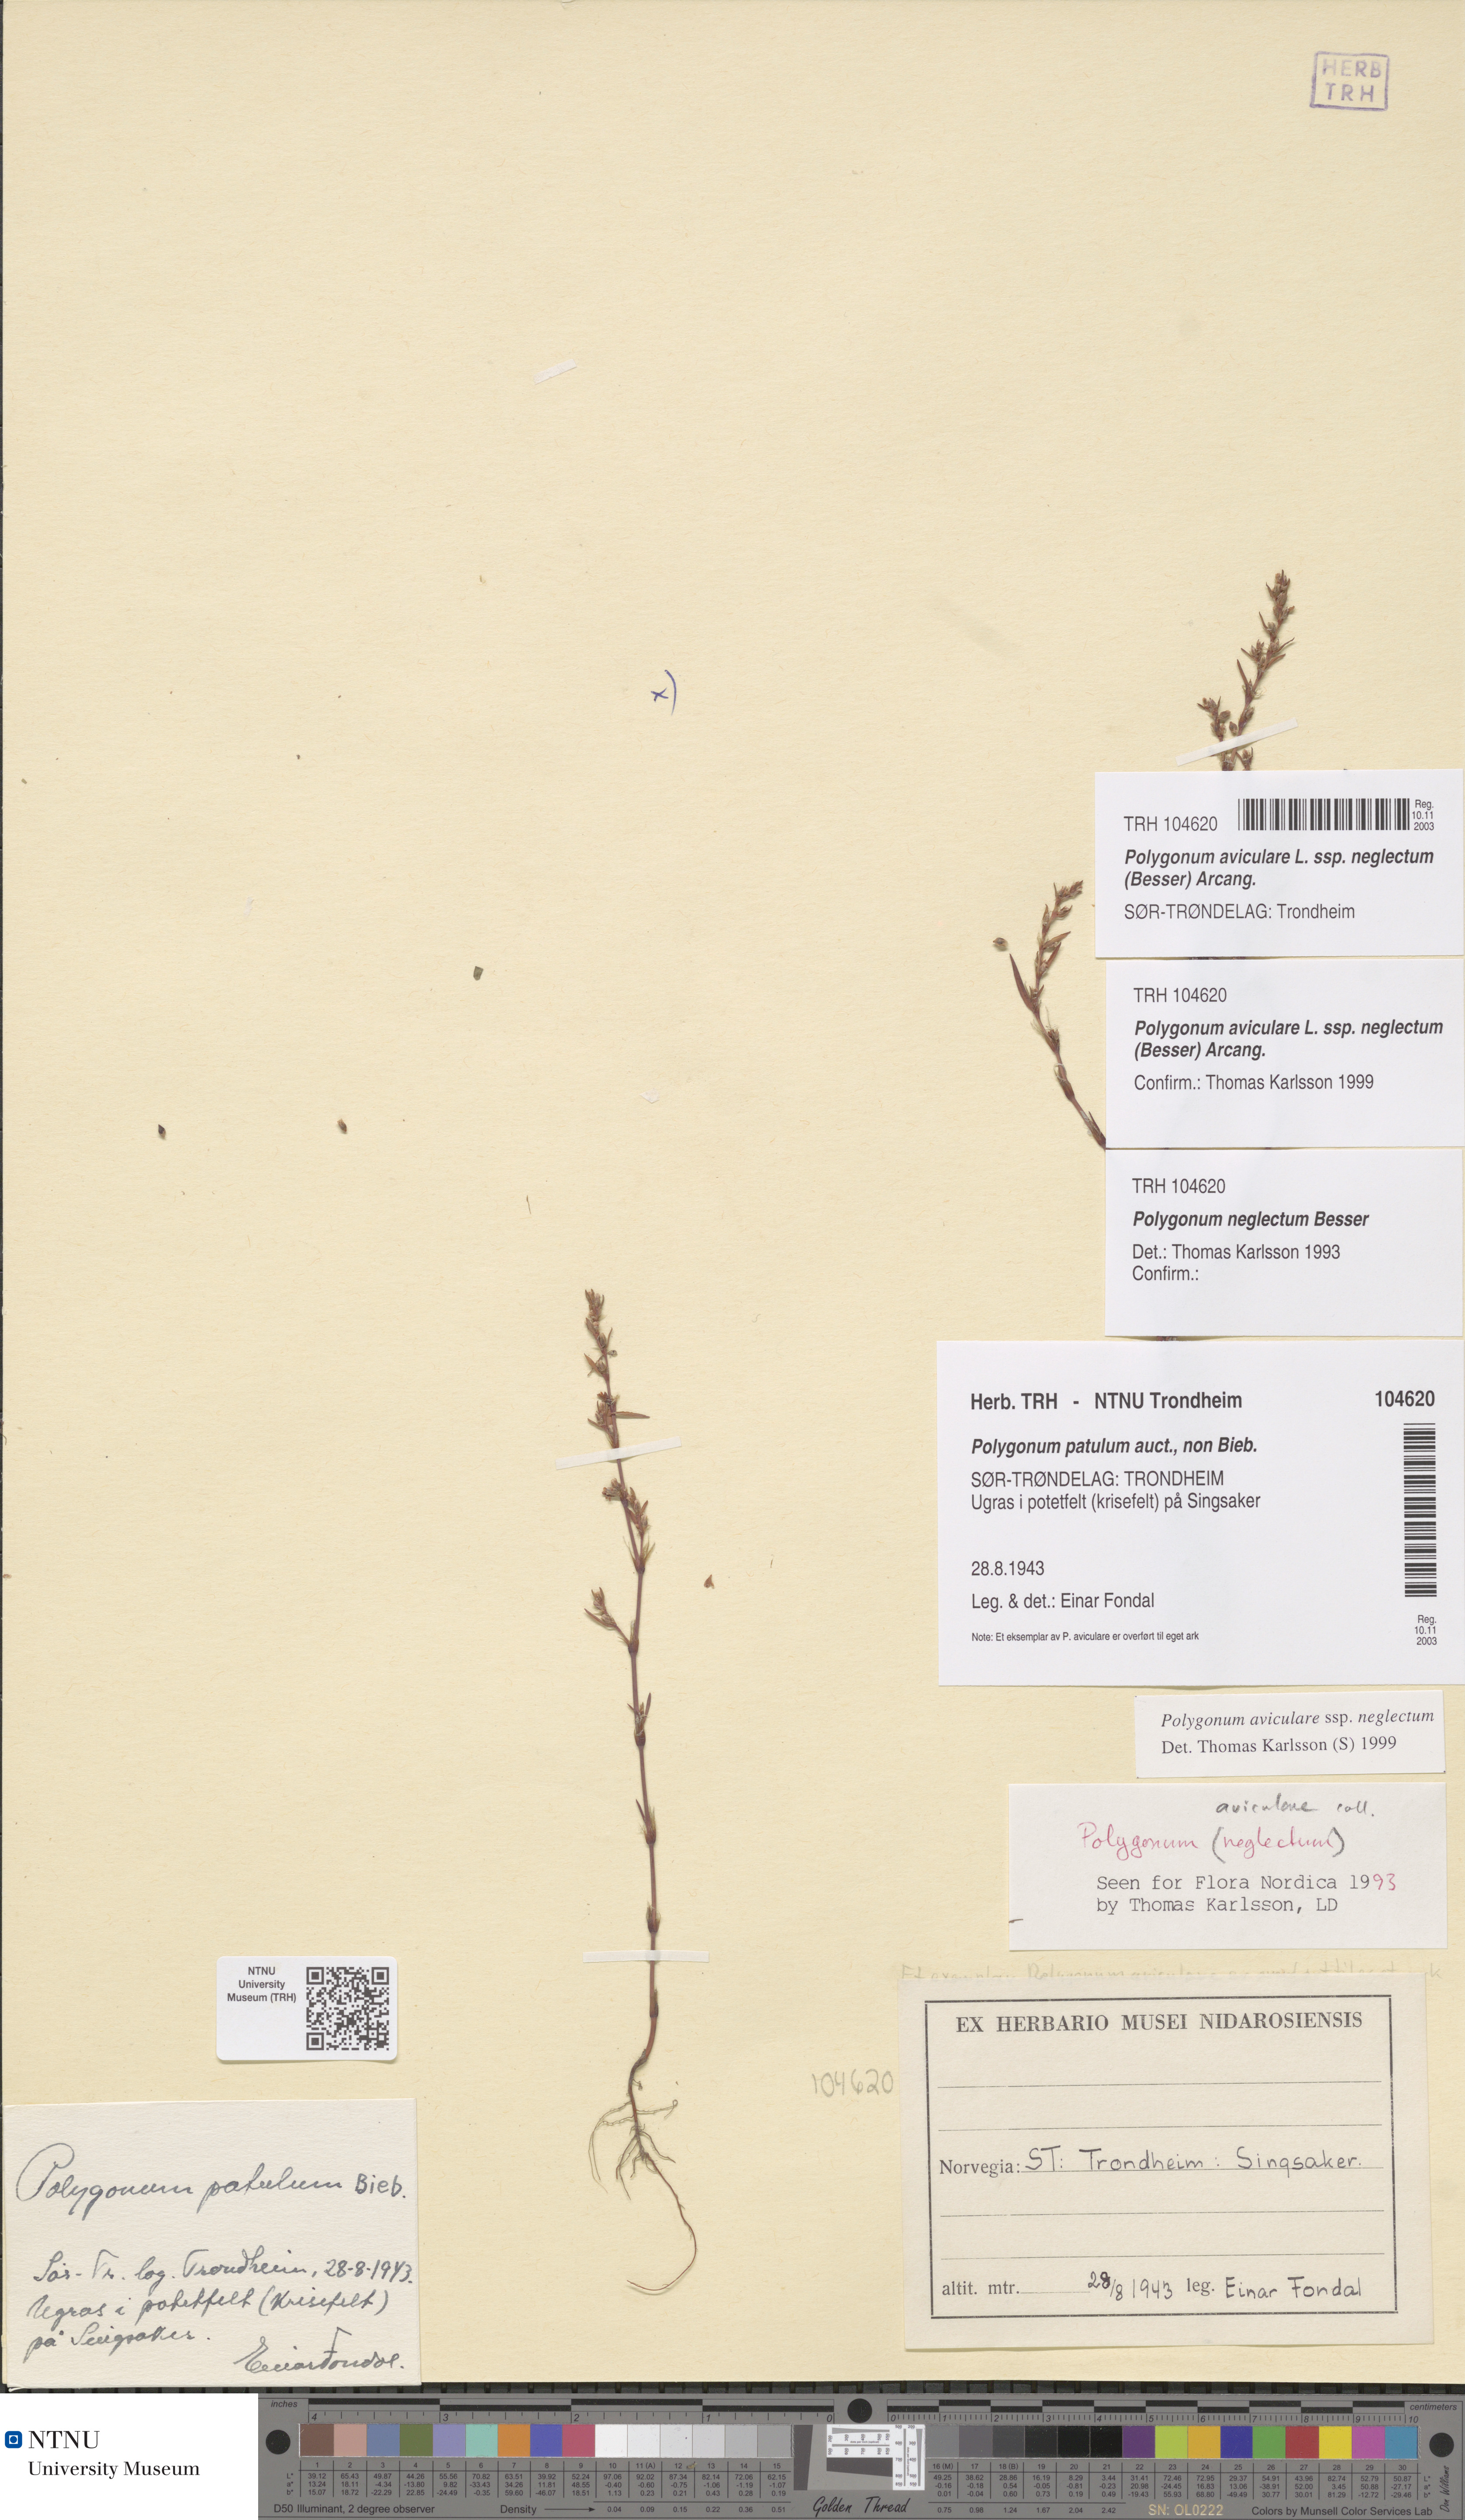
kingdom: Plantae
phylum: Tracheophyta
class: Magnoliopsida
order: Caryophyllales
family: Polygonaceae
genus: Polygonum
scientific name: Polygonum aviculare
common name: Prostrate knotweed
